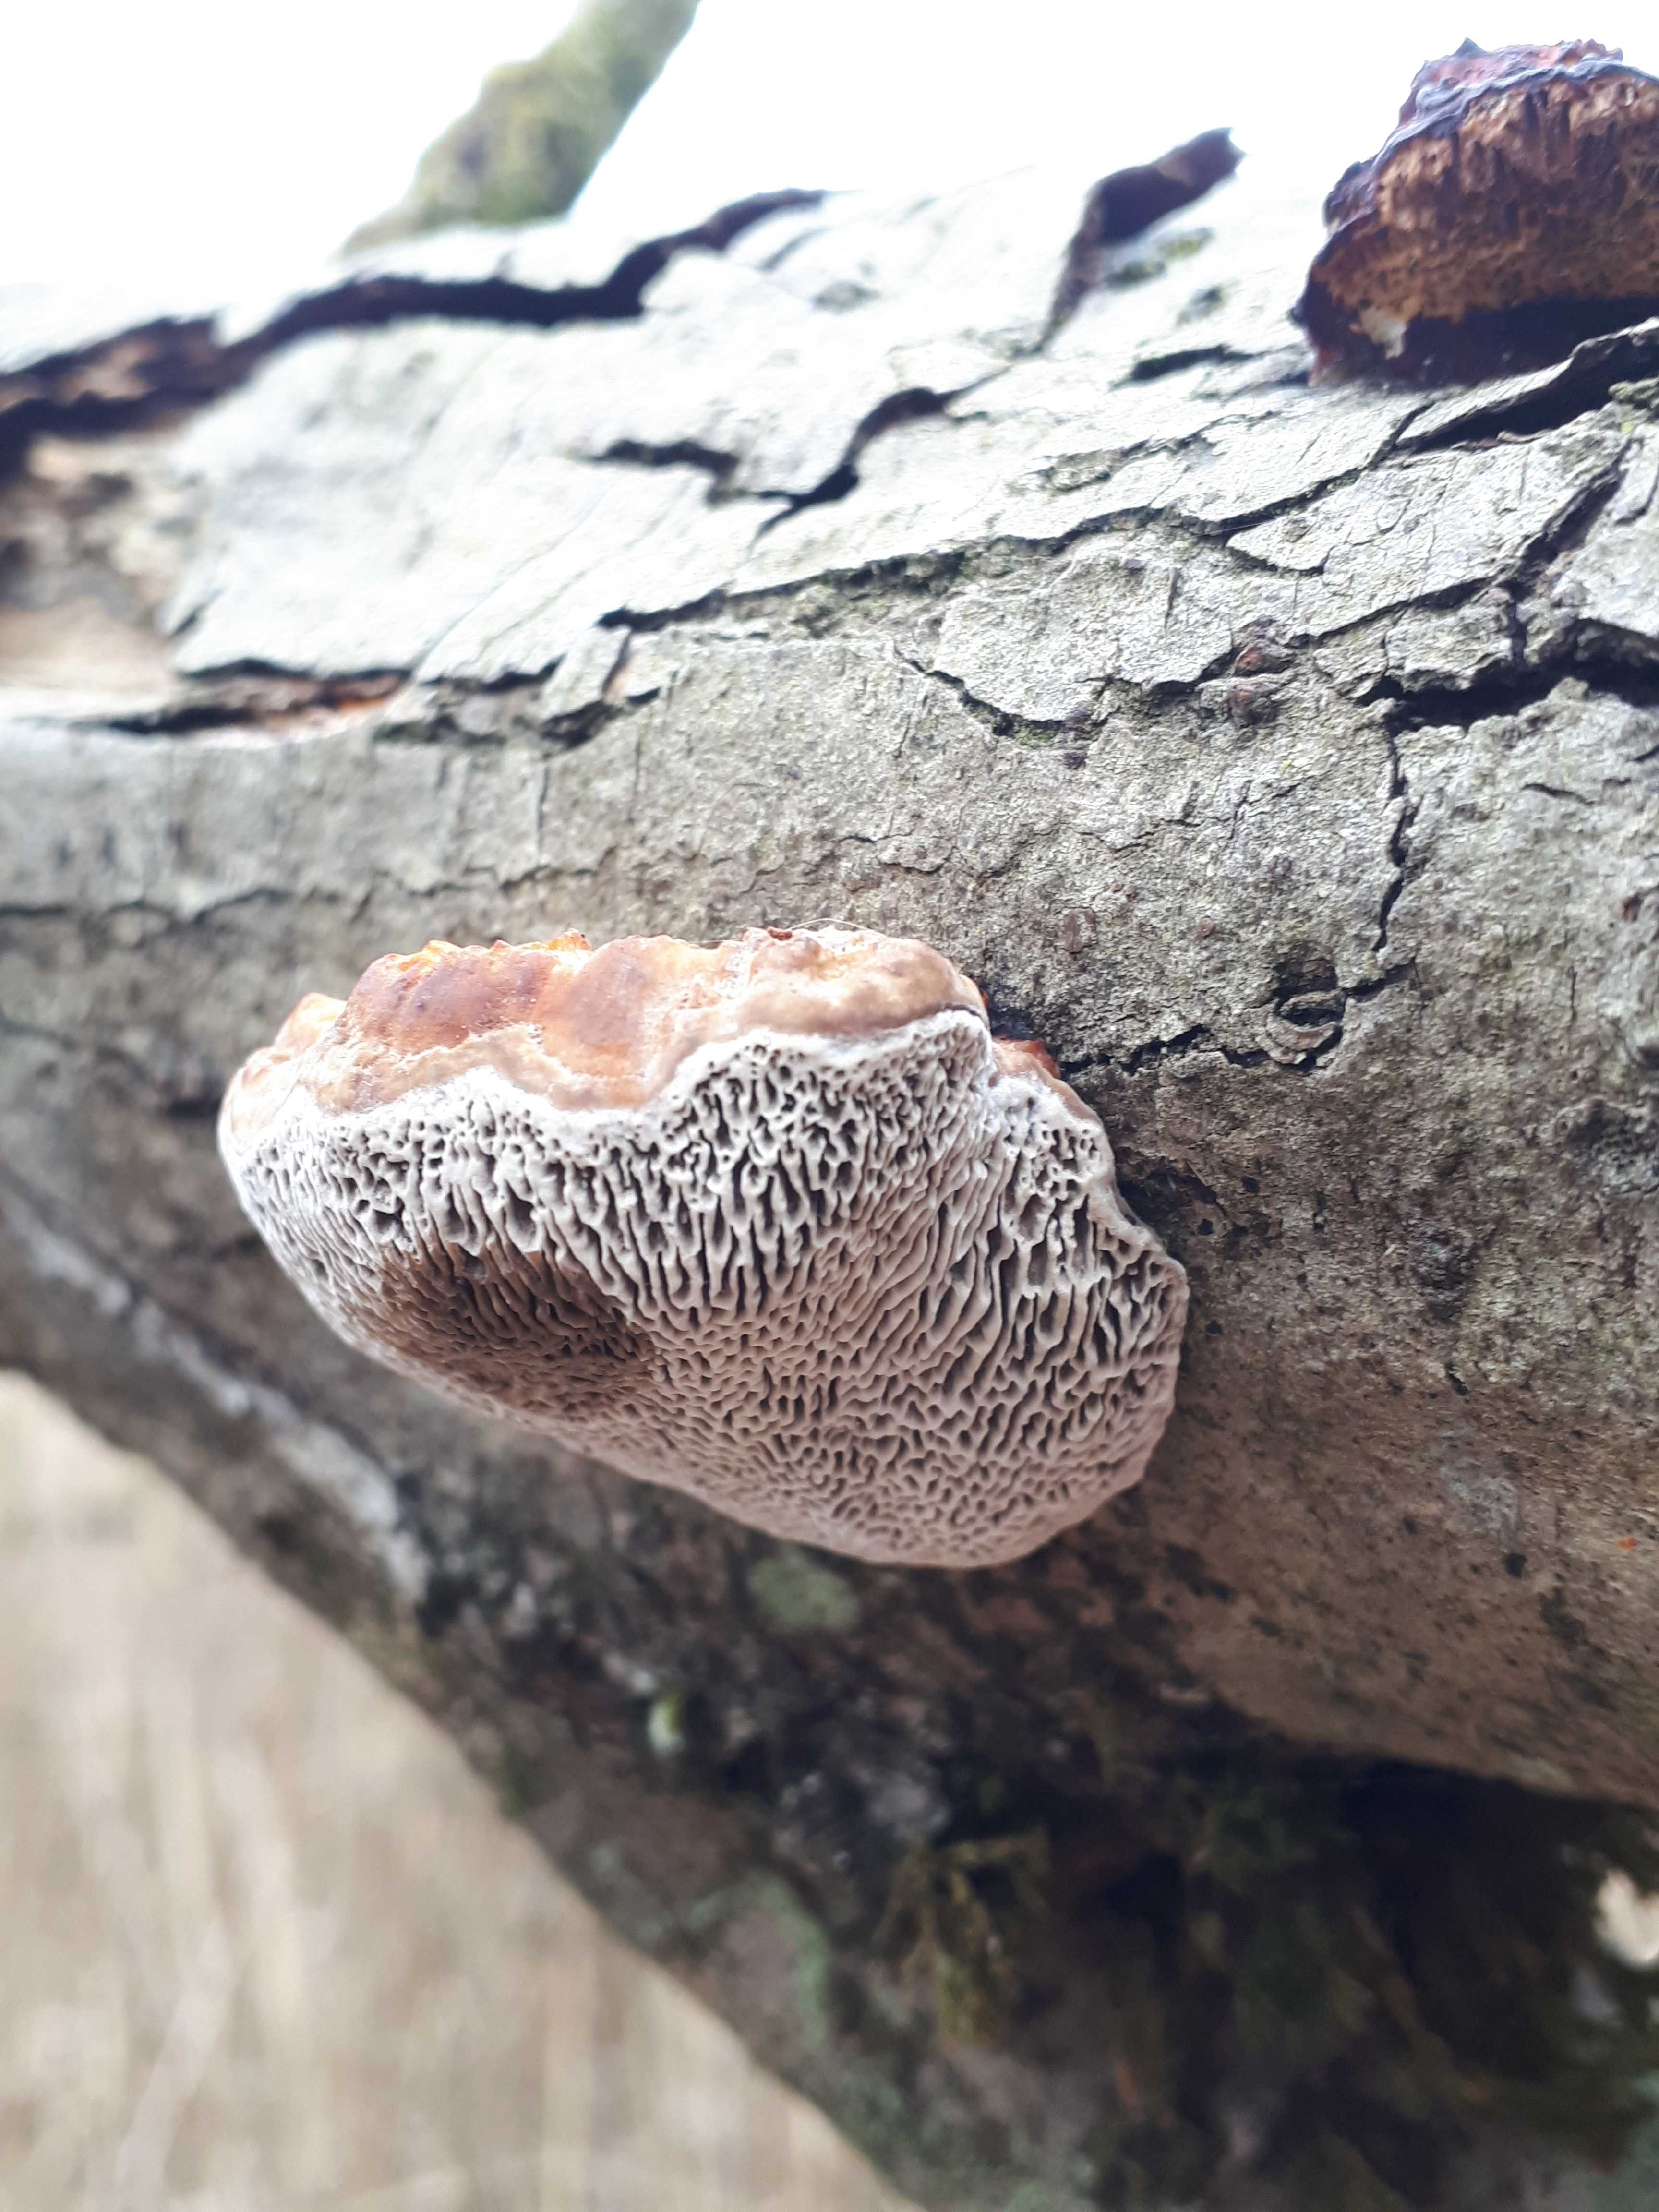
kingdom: Fungi
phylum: Basidiomycota
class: Agaricomycetes
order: Polyporales
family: Polyporaceae
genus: Daedaleopsis
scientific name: Daedaleopsis confragosa
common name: rødmende læderporesvamp
